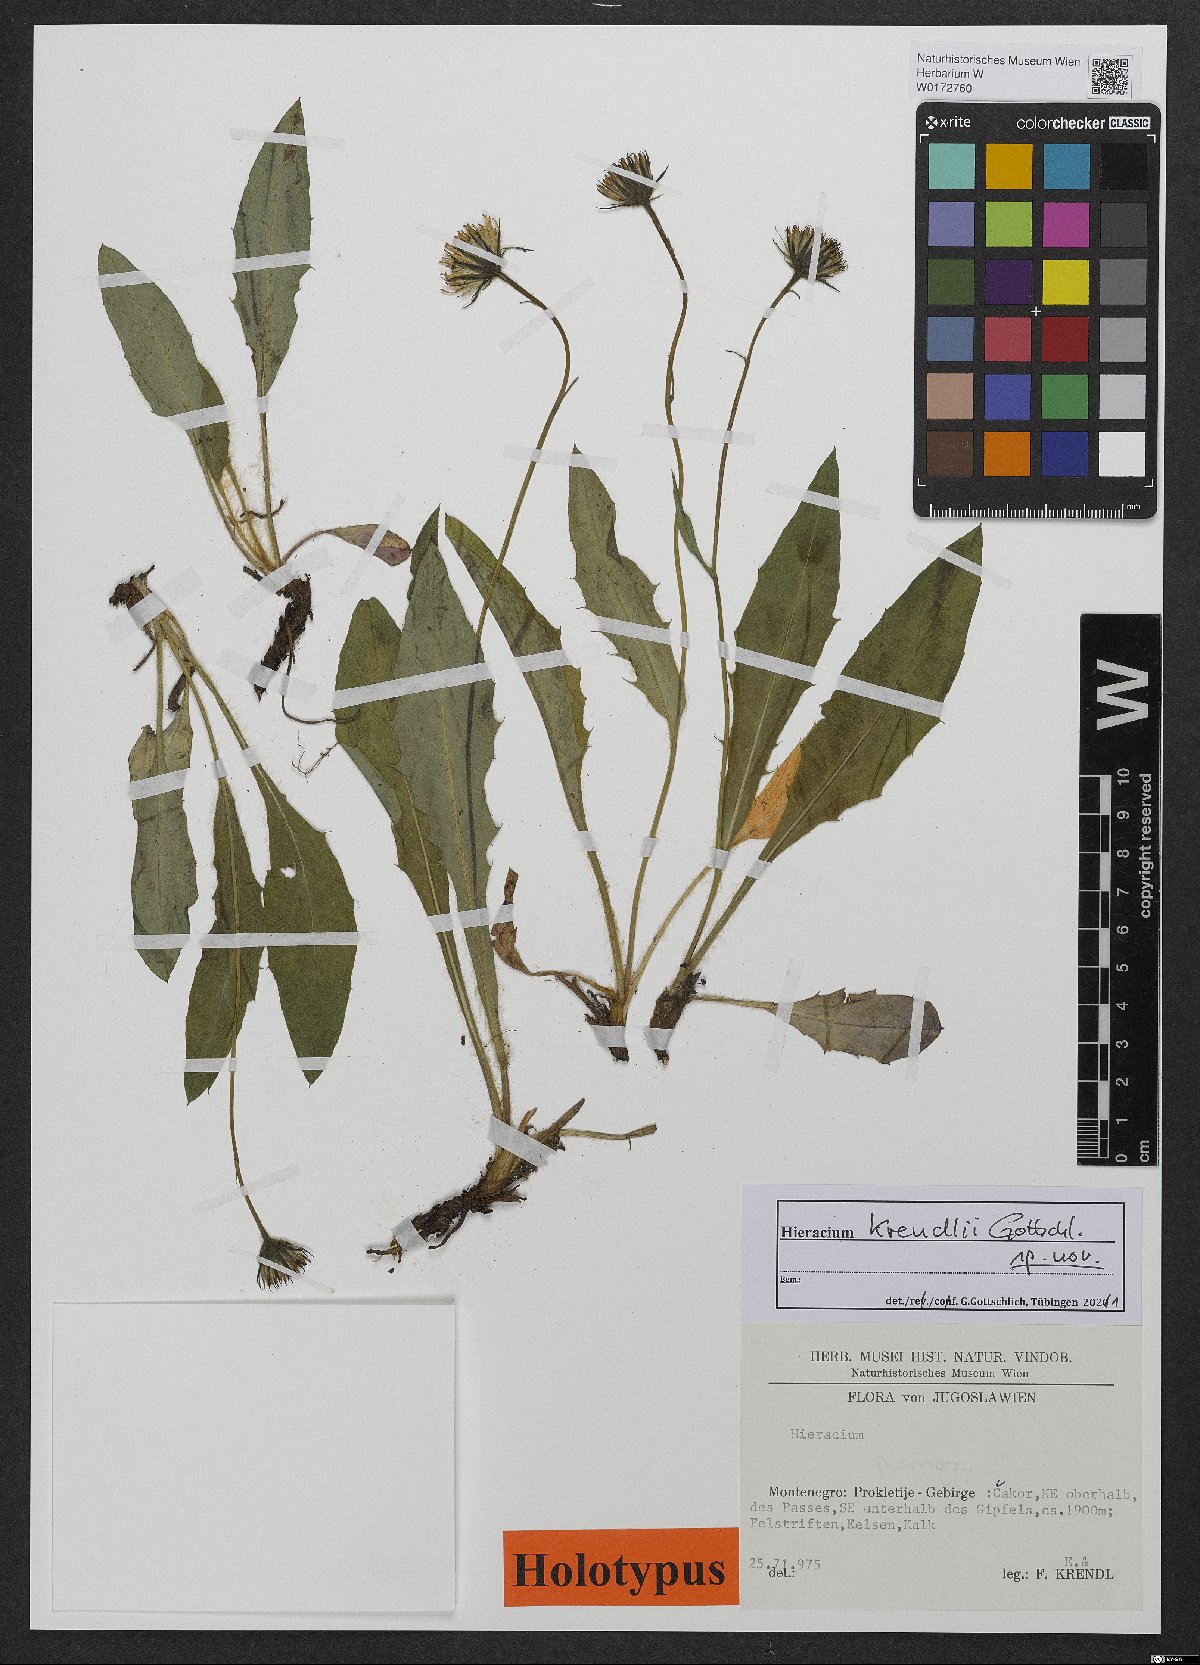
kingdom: Plantae
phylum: Tracheophyta
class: Magnoliopsida
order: Asterales
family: Asteraceae
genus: Hieracium
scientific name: Hieracium
